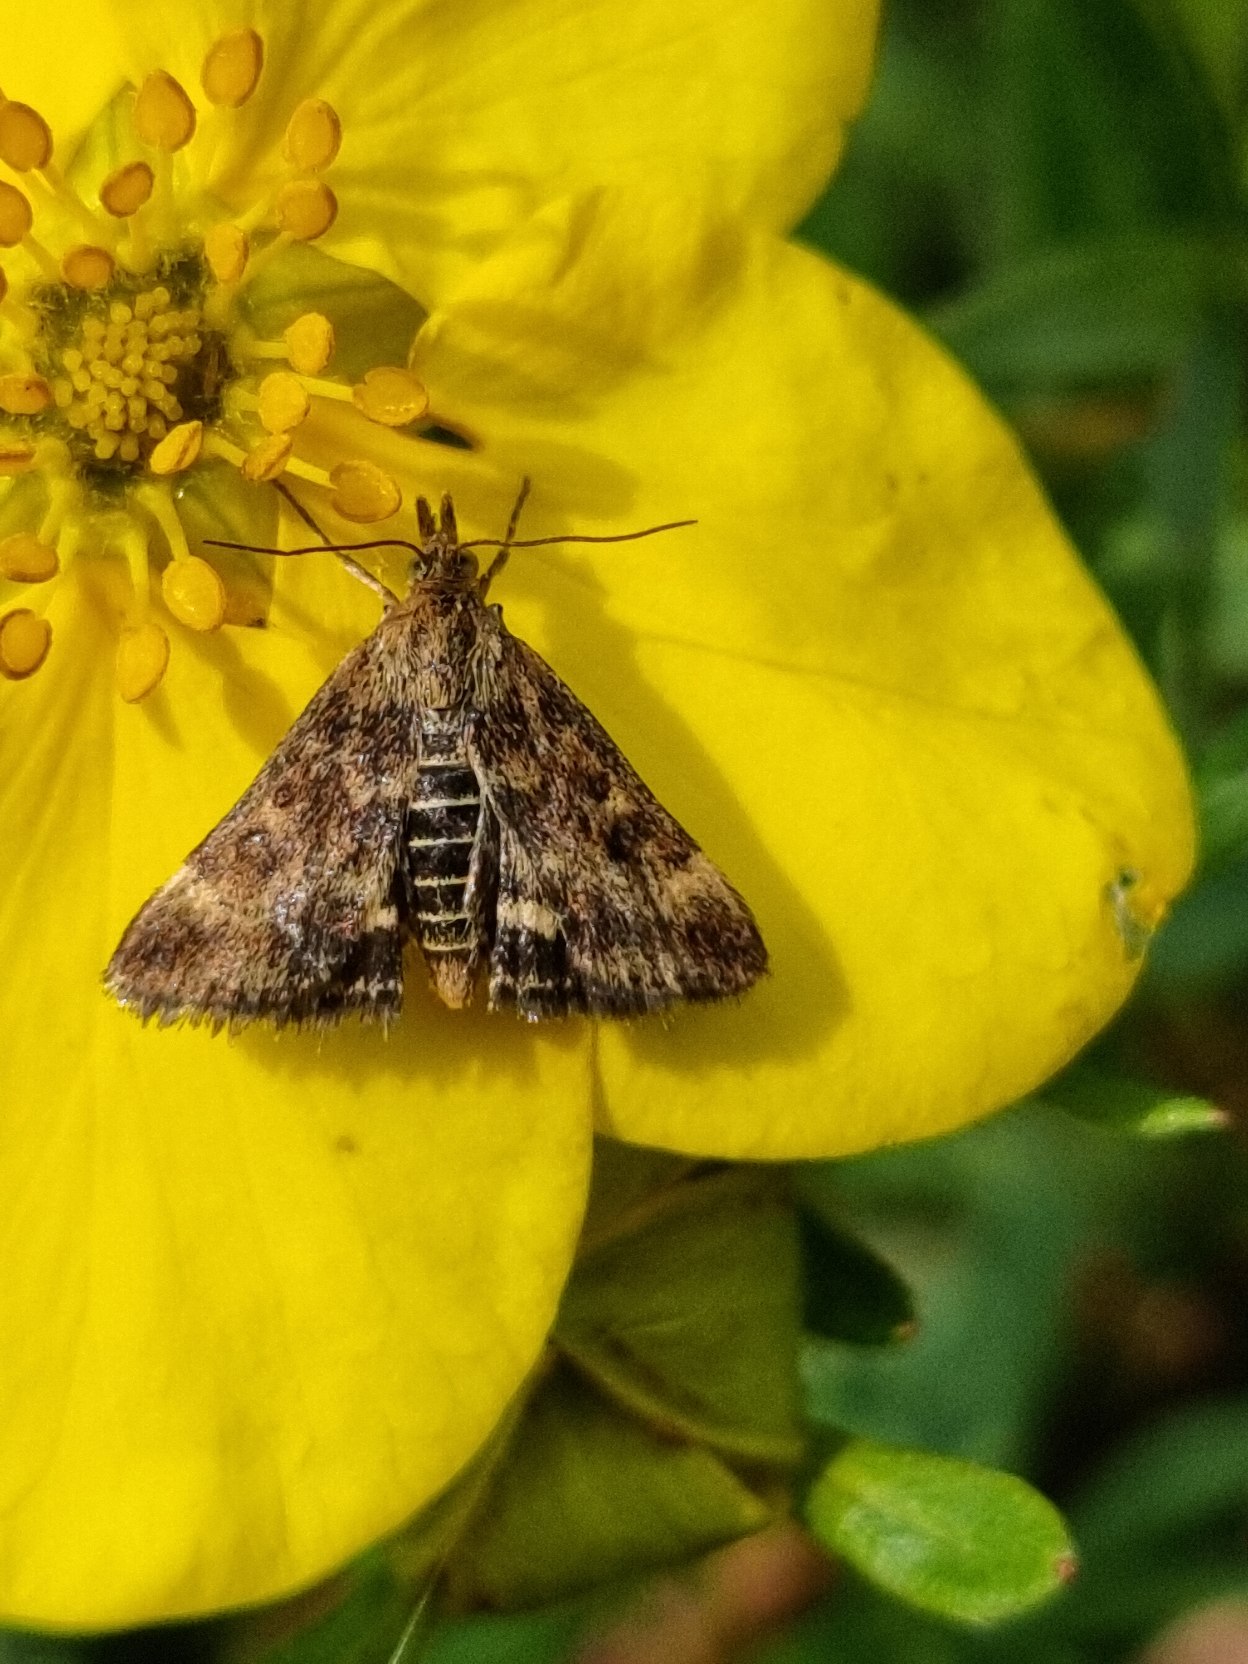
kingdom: Animalia
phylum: Arthropoda
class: Insecta
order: Lepidoptera
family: Crambidae
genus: Pyrausta
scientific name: Pyrausta despicata
